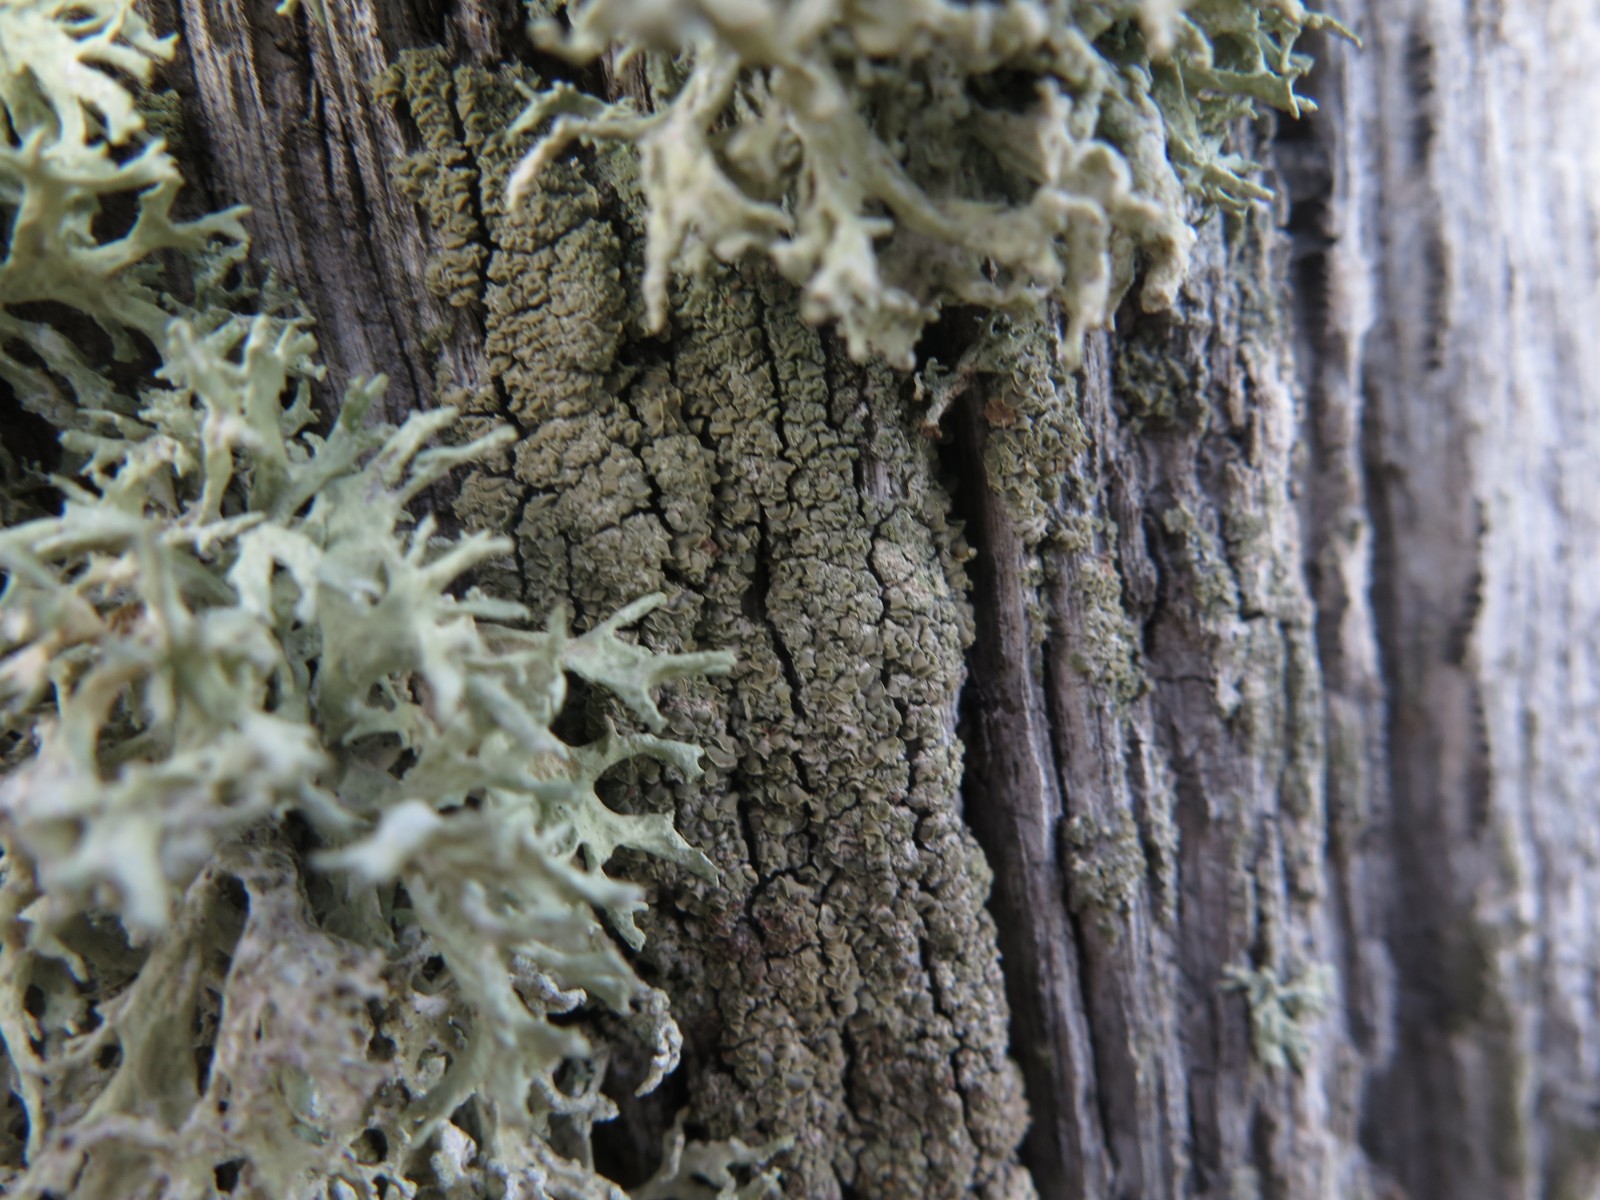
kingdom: Fungi
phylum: Ascomycota
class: Lecanoromycetes
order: Umbilicariales
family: Ophioparmaceae
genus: Hypocenomyce
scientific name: Hypocenomyce scalaris
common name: småskællet muslinglav
